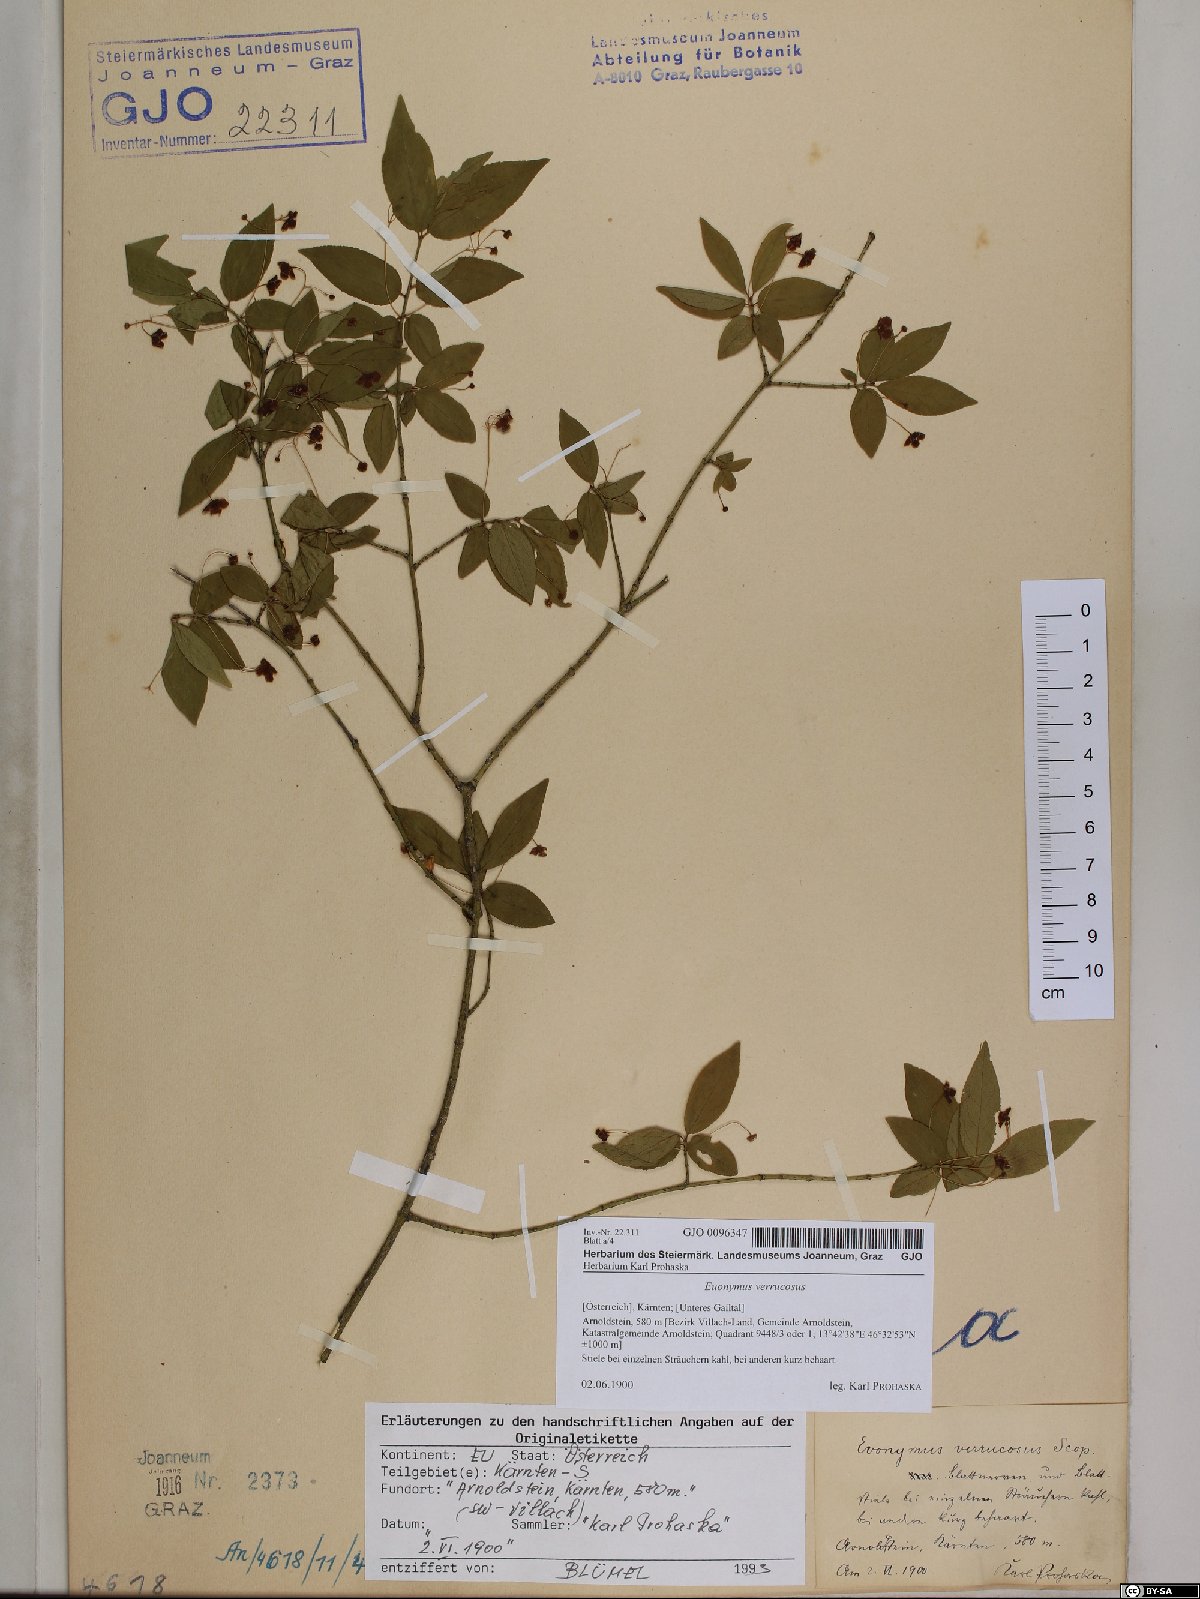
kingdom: Plantae
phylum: Tracheophyta
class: Magnoliopsida
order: Celastrales
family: Celastraceae
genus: Euonymus
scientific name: Euonymus verrucosus
